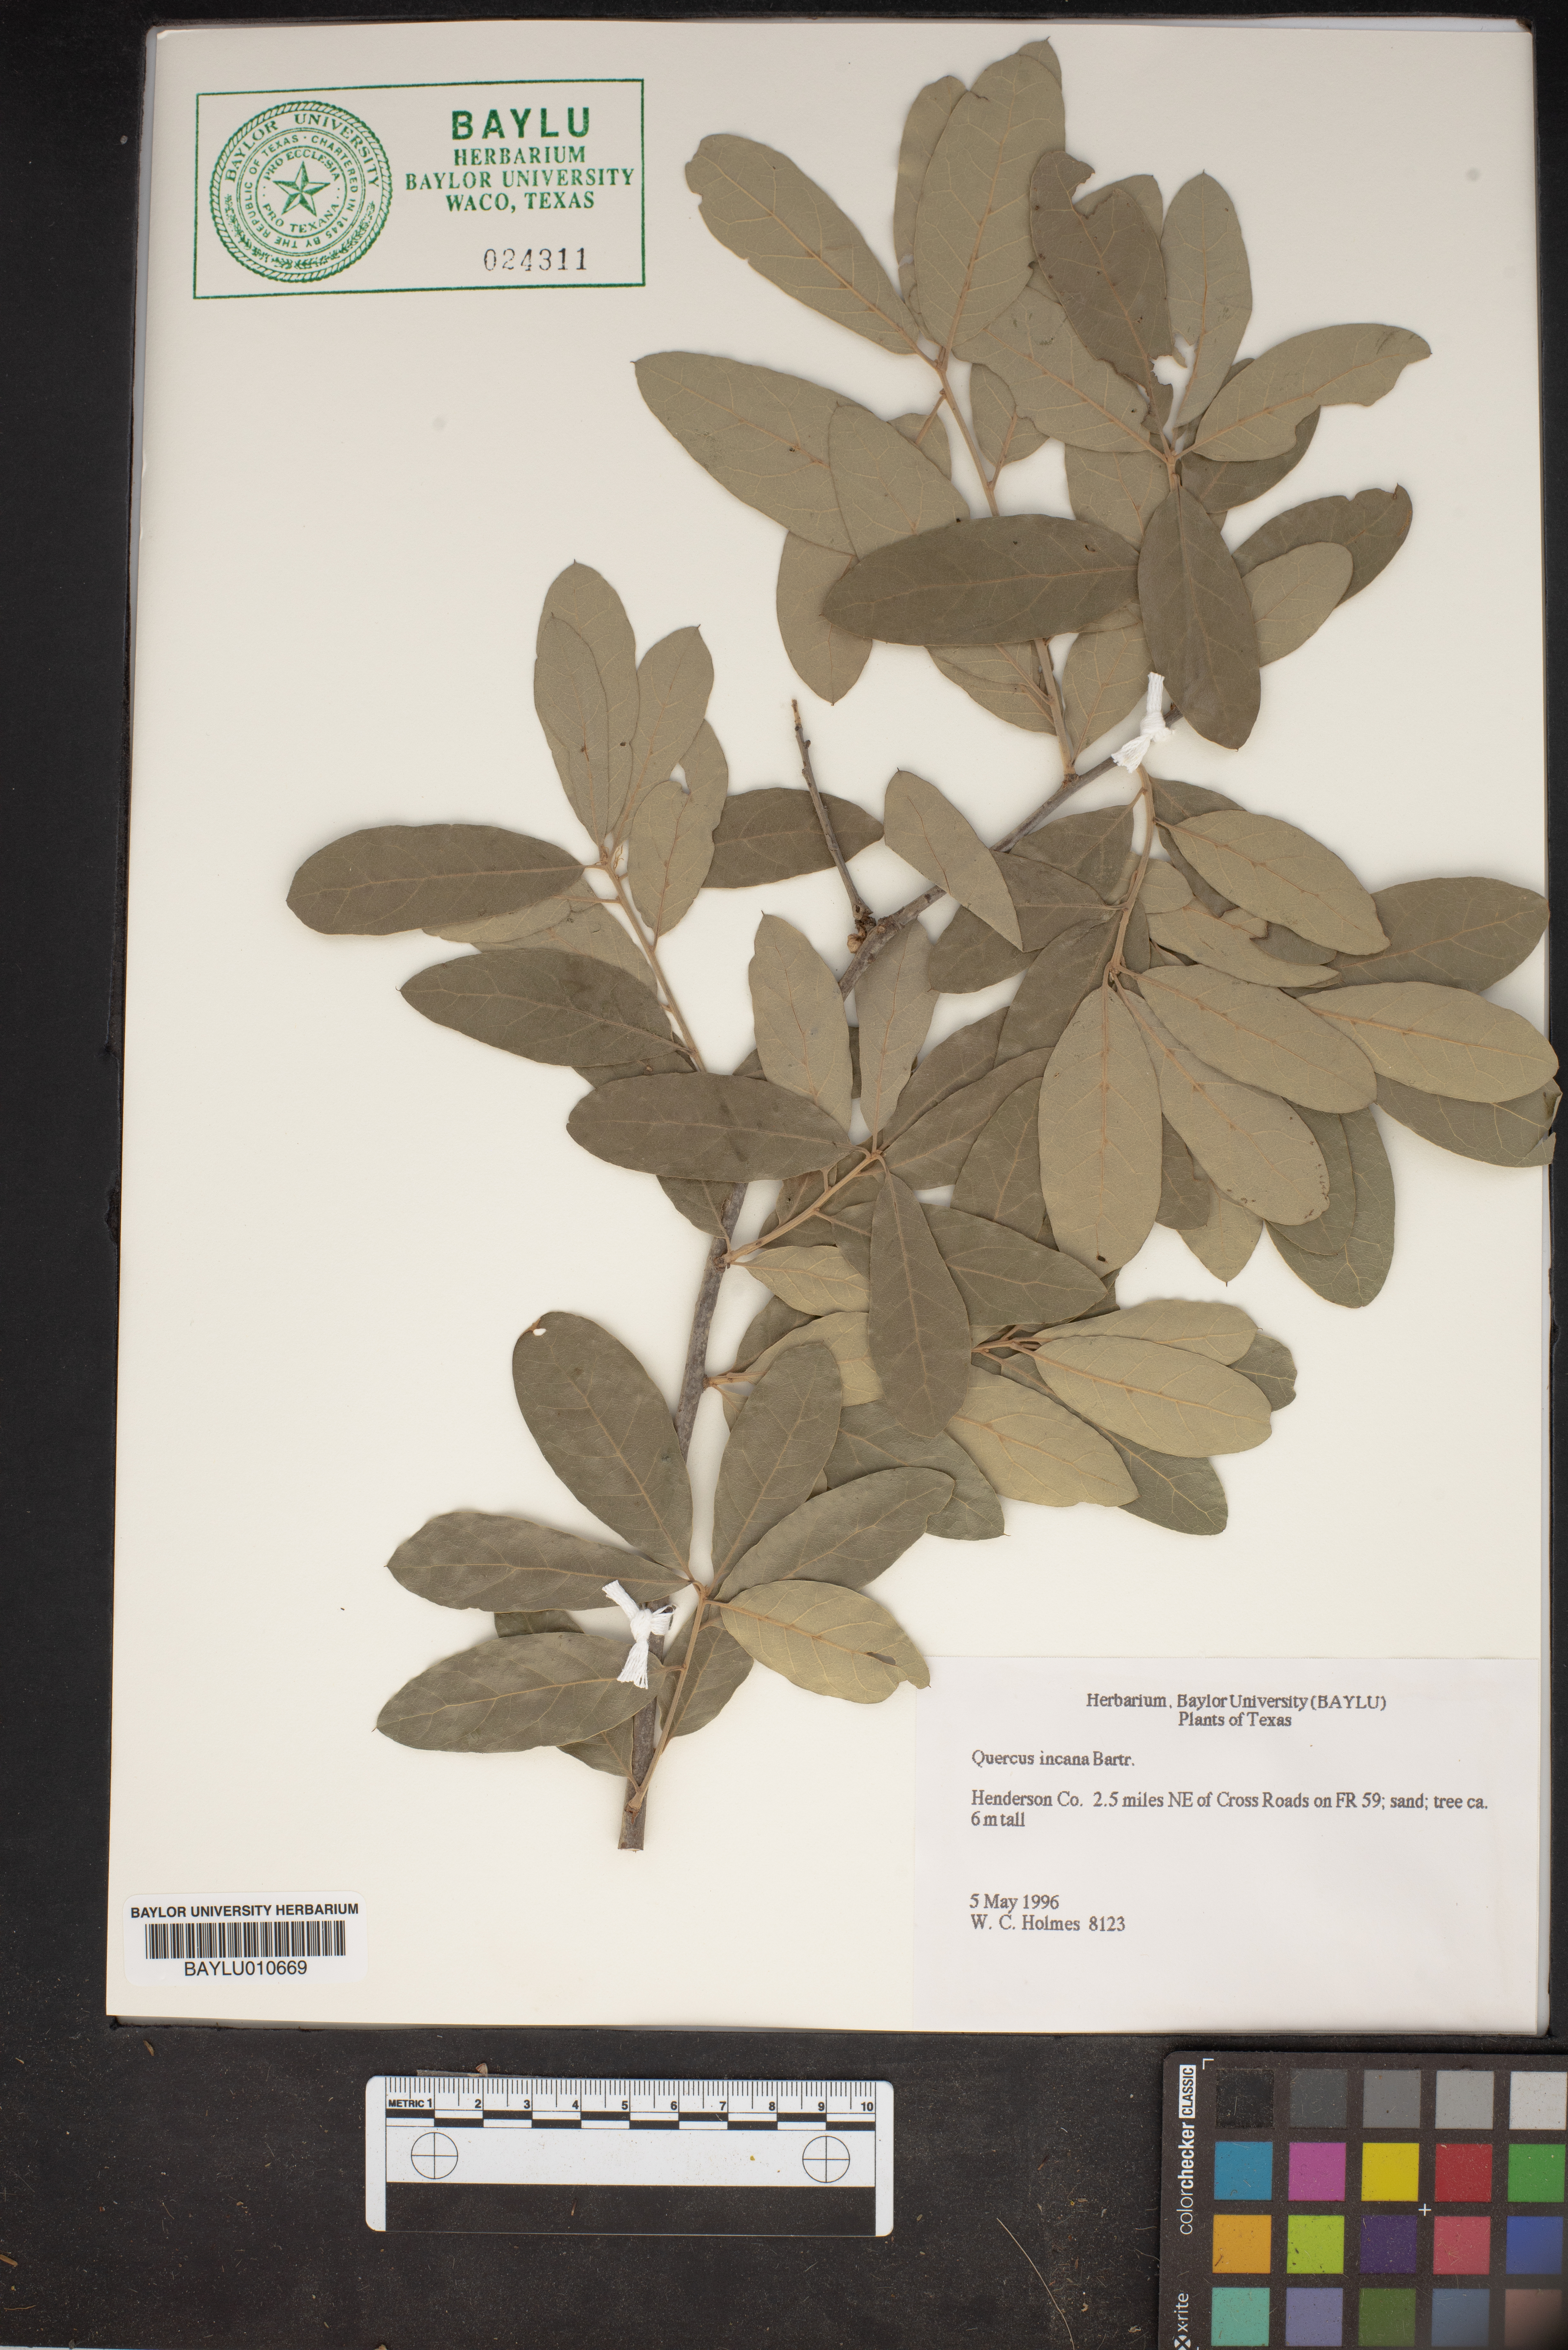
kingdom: Plantae
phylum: Tracheophyta
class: Magnoliopsida
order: Fagales
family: Fagaceae
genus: Quercus
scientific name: Quercus incana
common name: Bluejack oak
